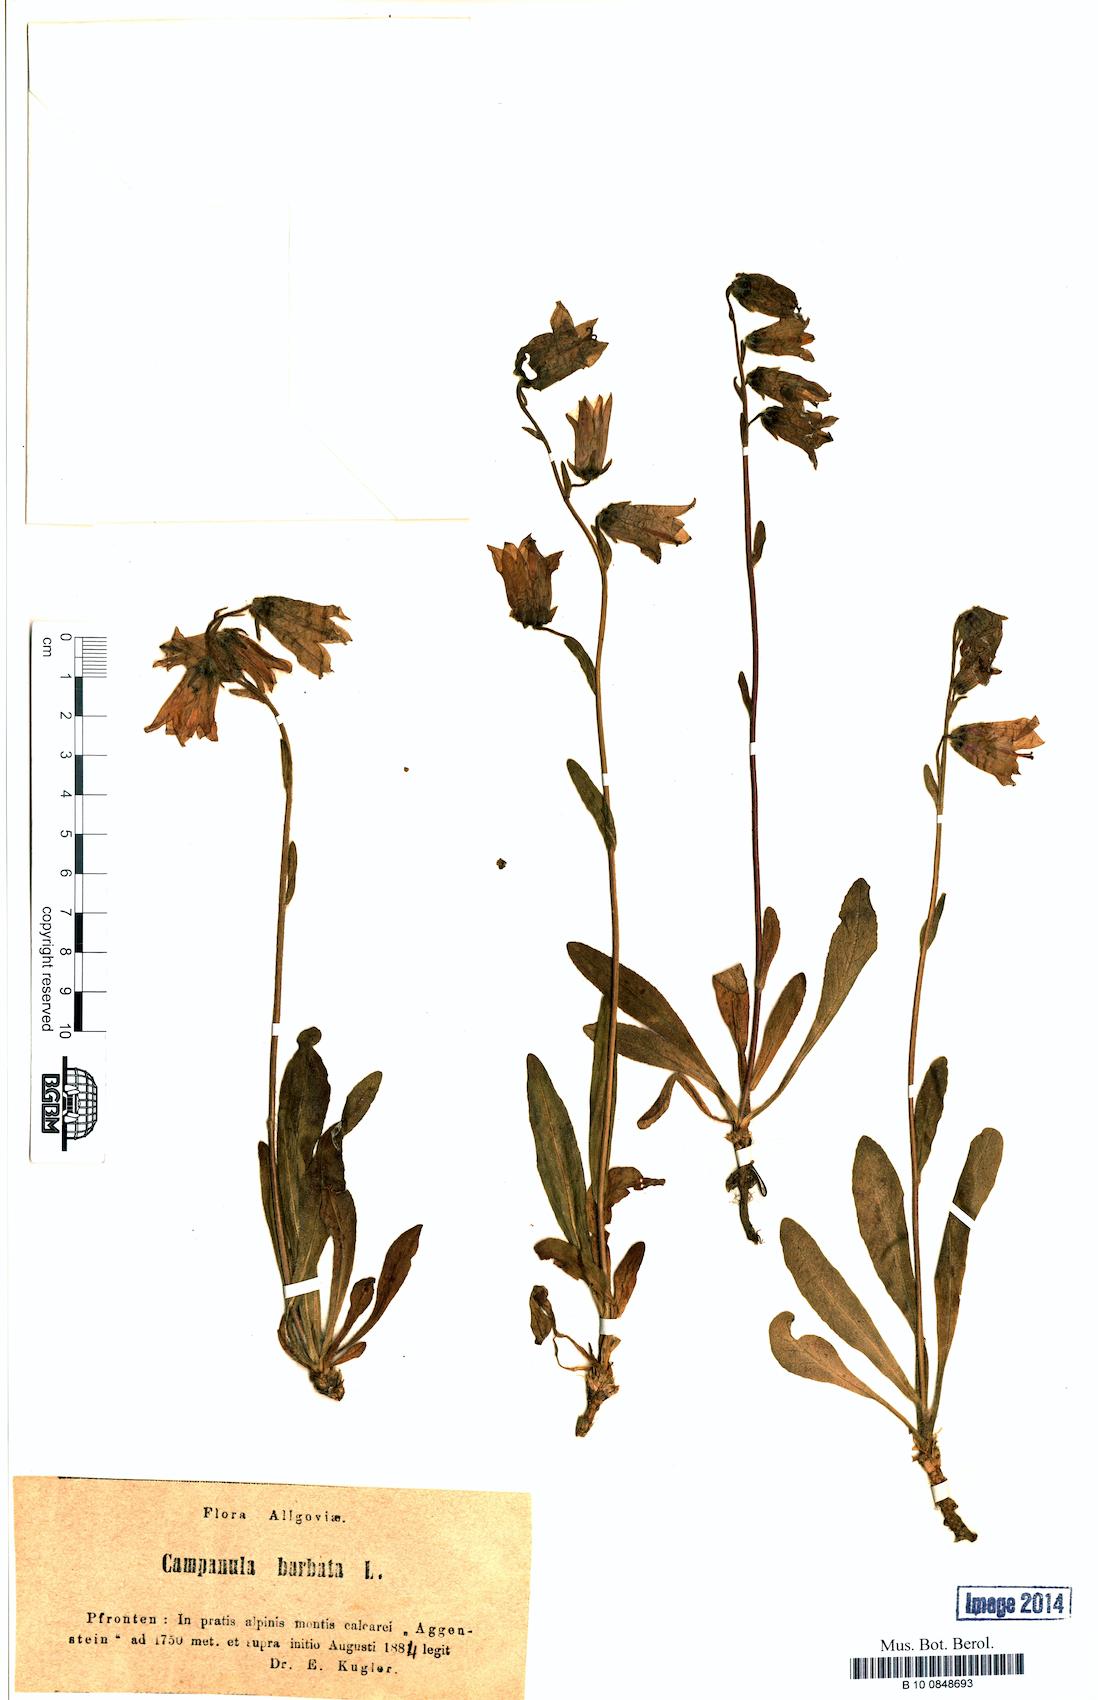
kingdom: Plantae
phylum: Tracheophyta
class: Magnoliopsida
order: Asterales
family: Campanulaceae
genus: Campanula
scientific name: Campanula barbata
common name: Bearded bellflower
